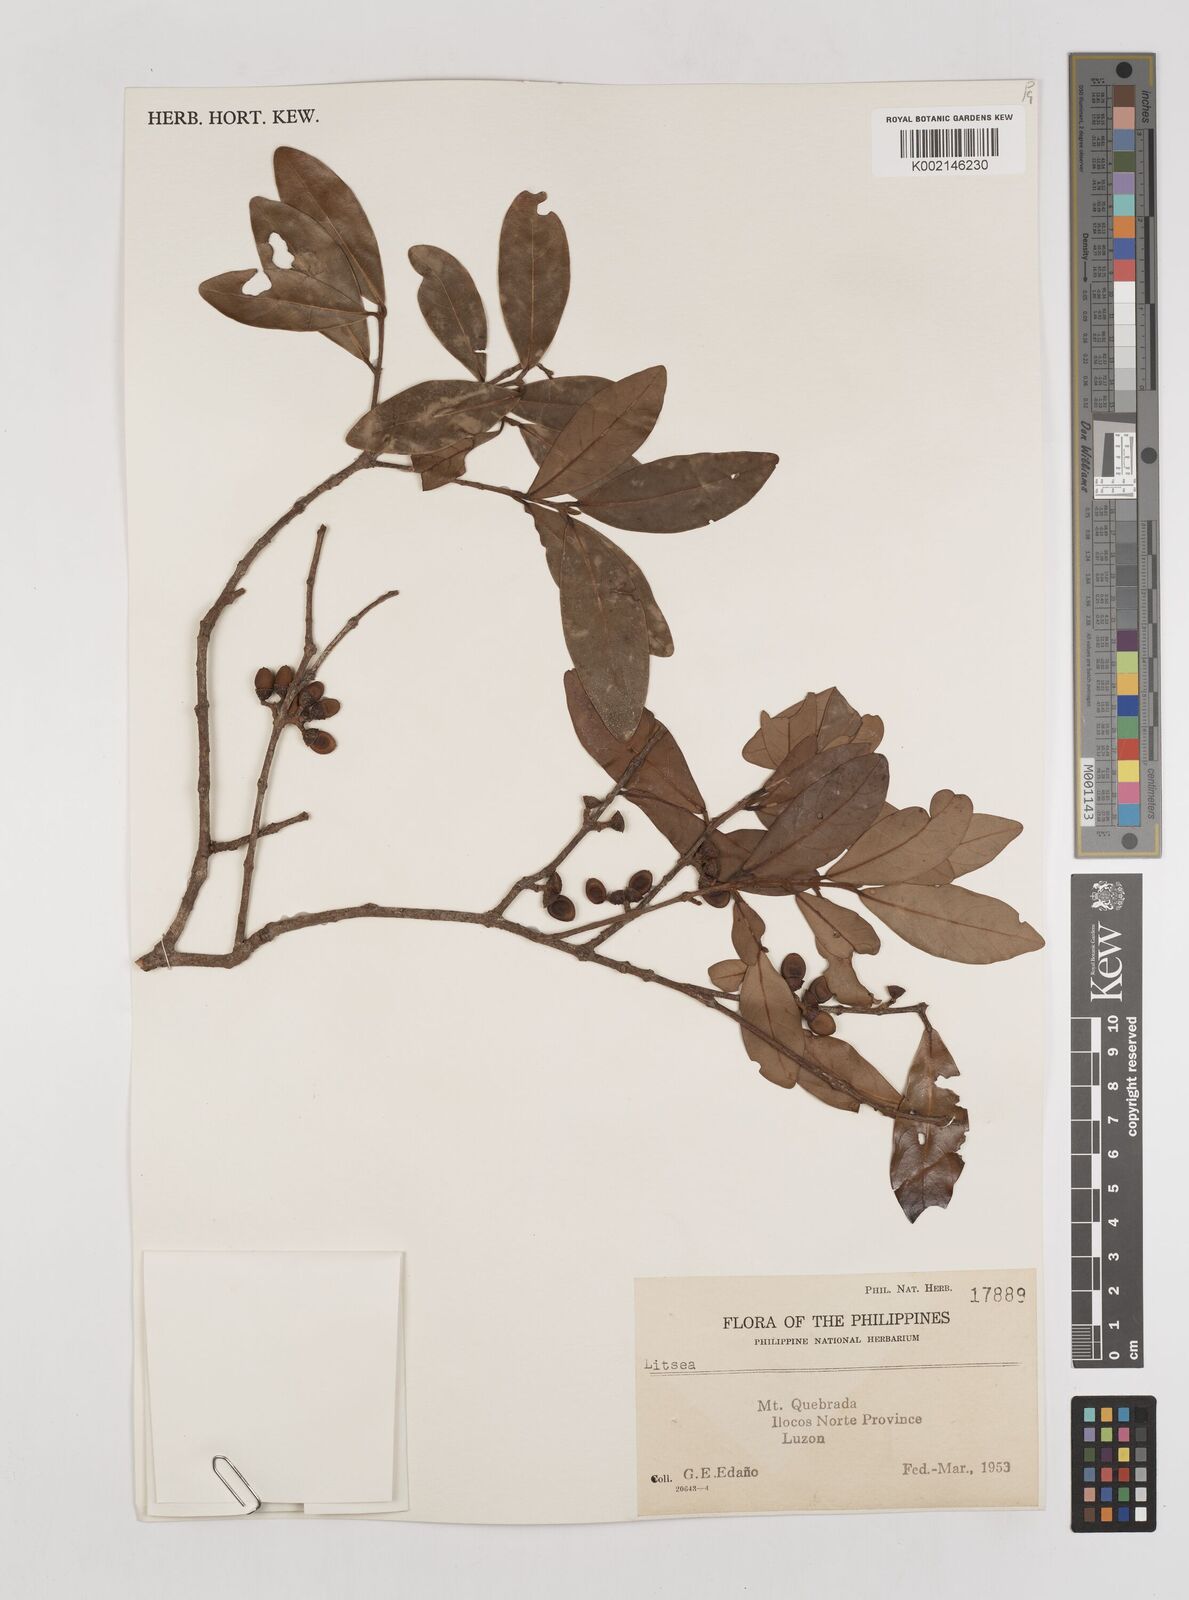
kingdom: Plantae
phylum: Tracheophyta
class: Magnoliopsida
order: Laurales
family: Lauraceae
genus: Litsea
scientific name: Litsea
